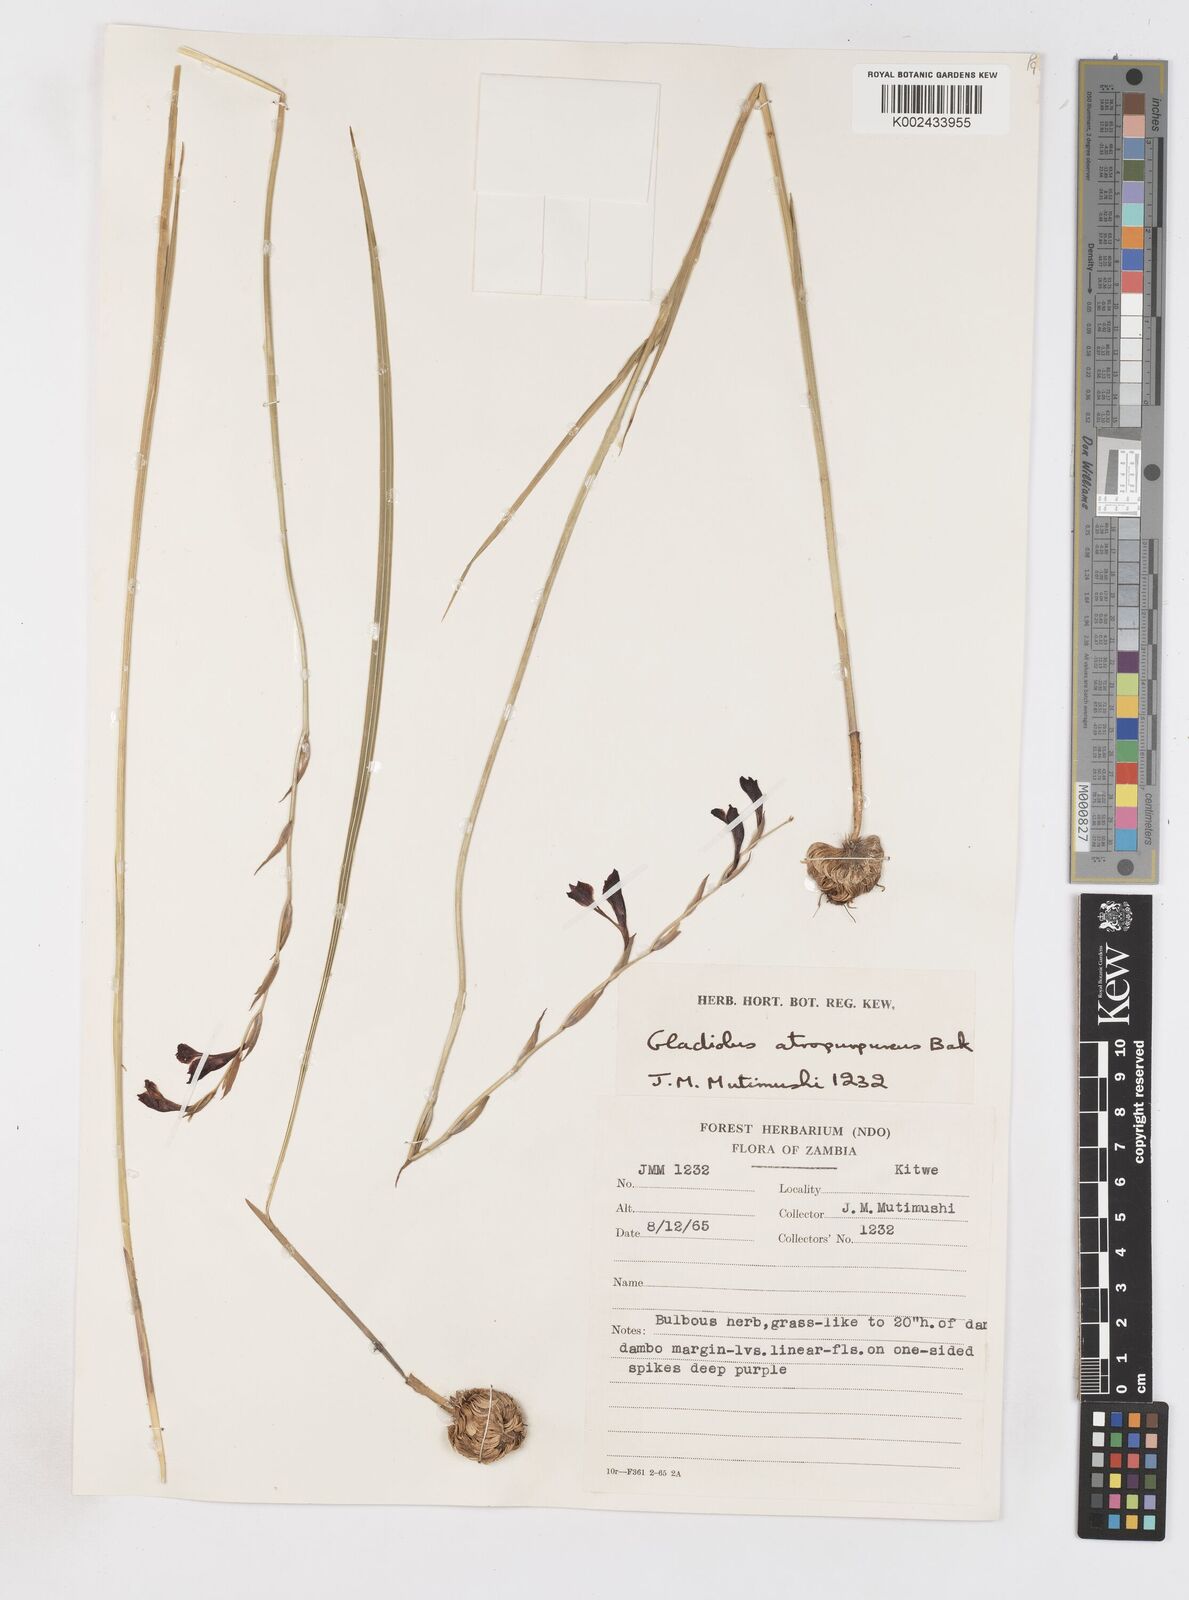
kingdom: Plantae
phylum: Tracheophyta
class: Liliopsida
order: Asparagales
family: Iridaceae
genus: Gladiolus
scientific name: Gladiolus atropurpureus
